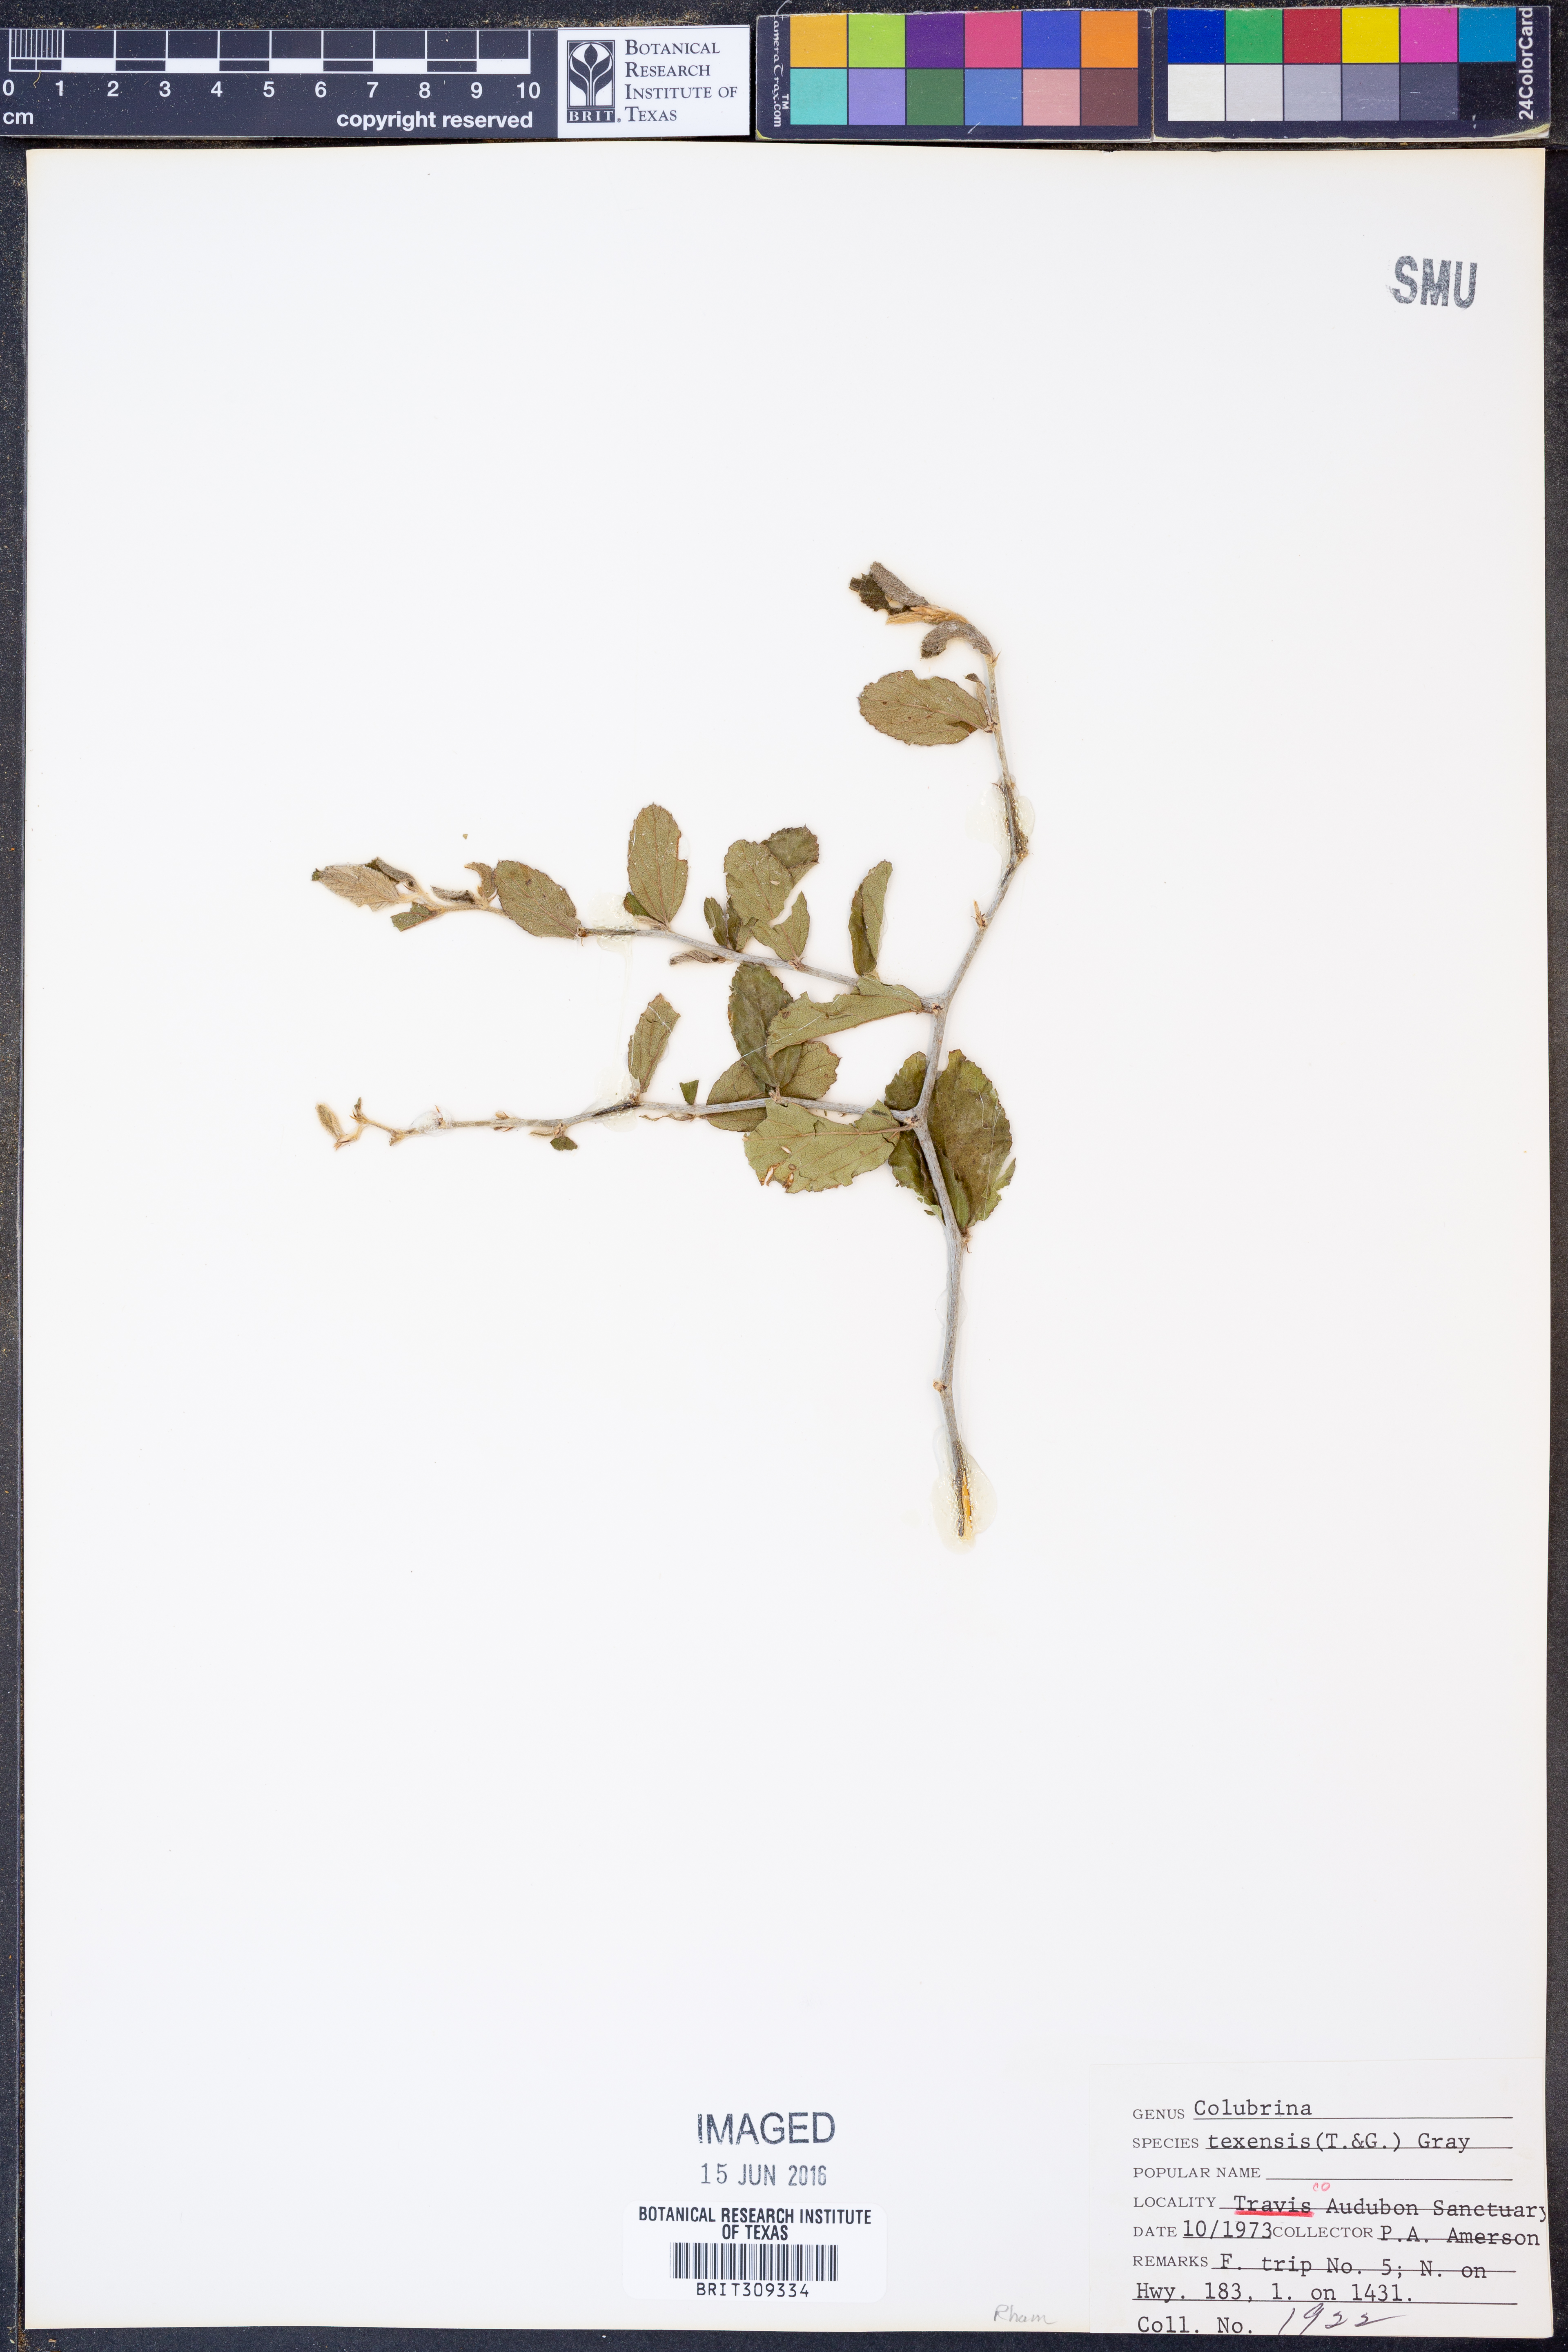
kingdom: Plantae
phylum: Tracheophyta
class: Magnoliopsida
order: Rosales
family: Rhamnaceae
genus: Colubrina
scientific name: Colubrina texensis
